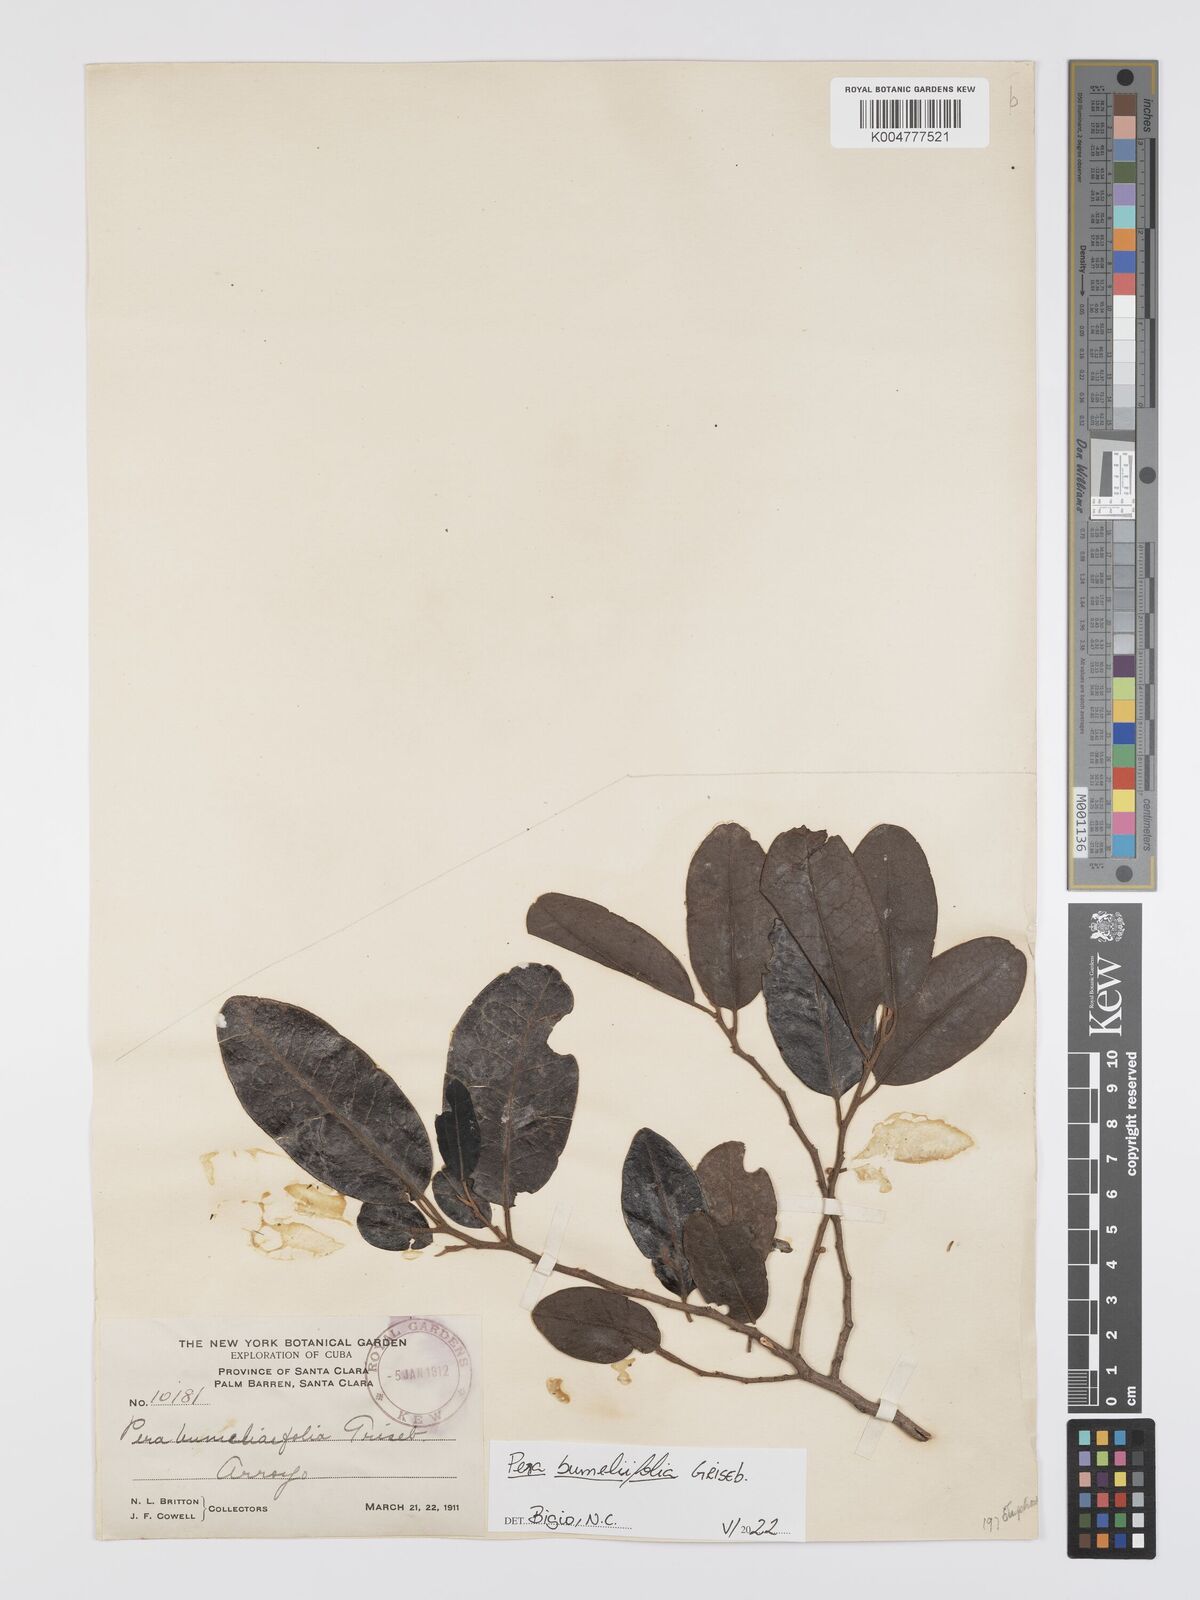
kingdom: Plantae
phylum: Tracheophyta
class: Magnoliopsida
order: Malpighiales
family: Peraceae
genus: Pera
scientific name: Pera
